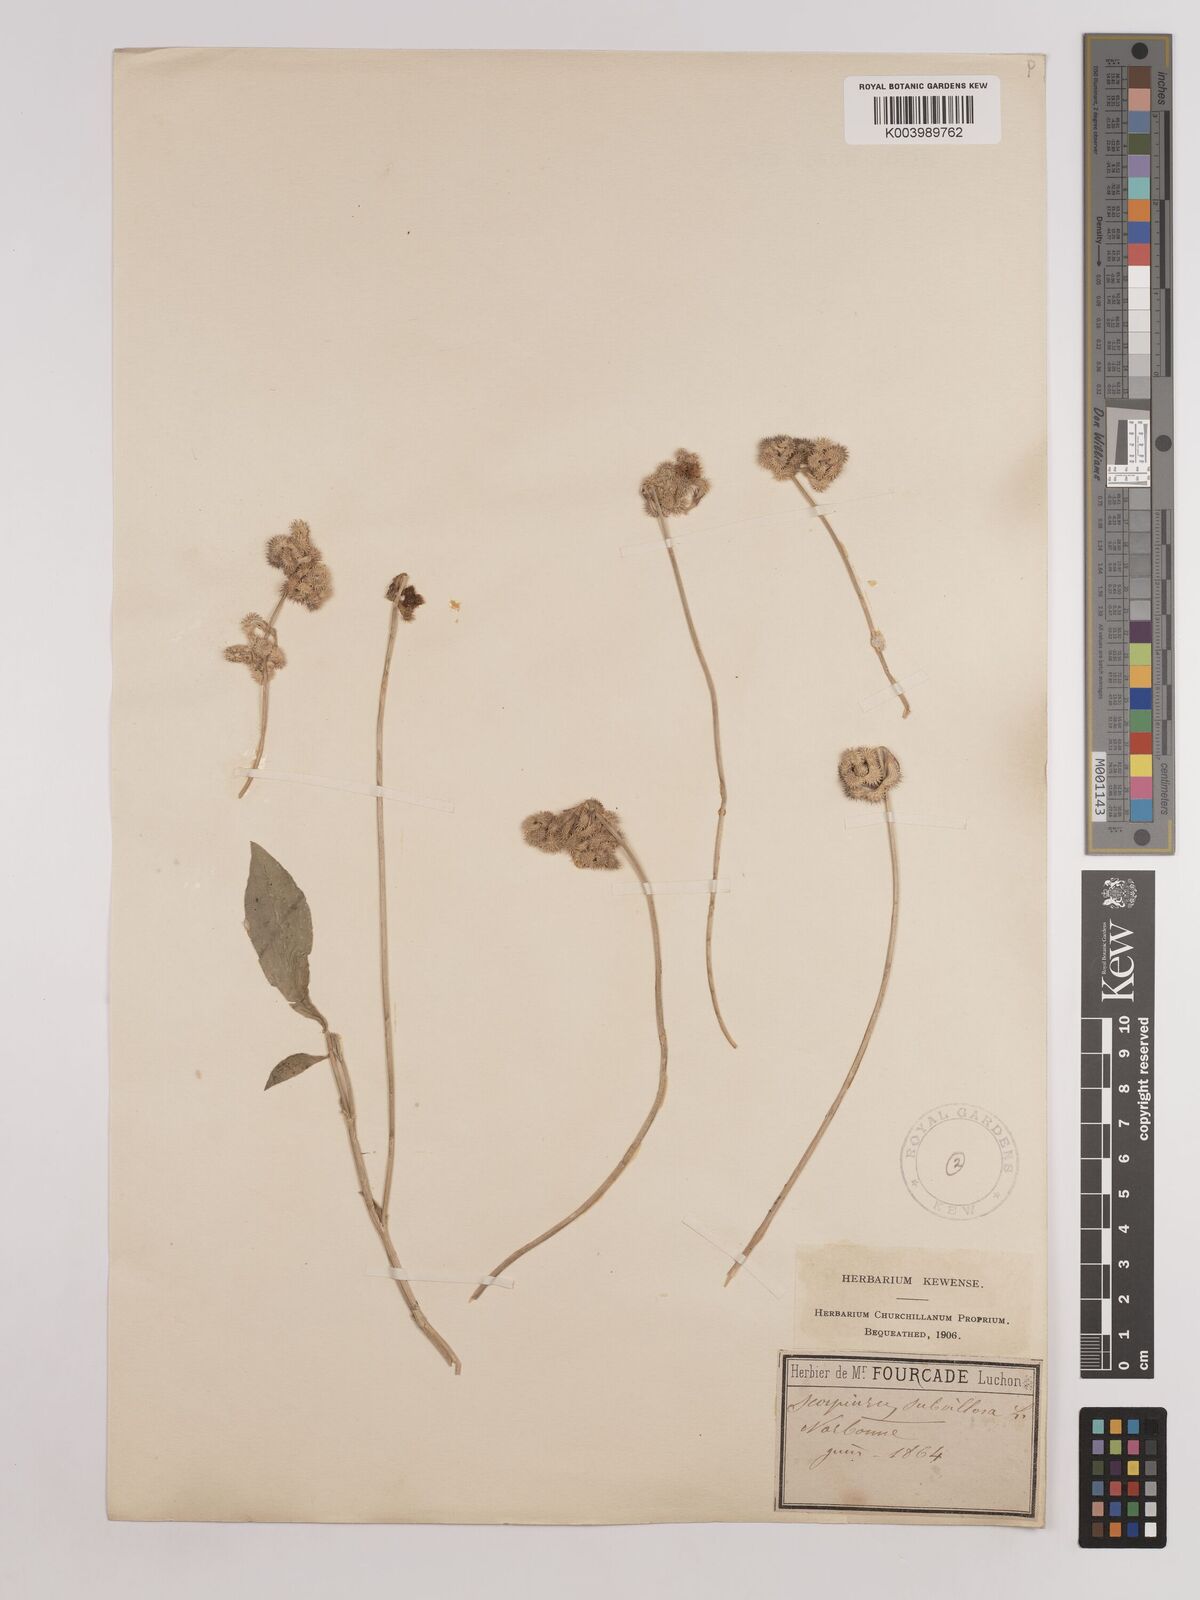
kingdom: Plantae
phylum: Tracheophyta
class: Magnoliopsida
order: Fabales
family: Fabaceae
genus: Scorpiurus
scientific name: Scorpiurus muricatus
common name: Caterpillar-plant
